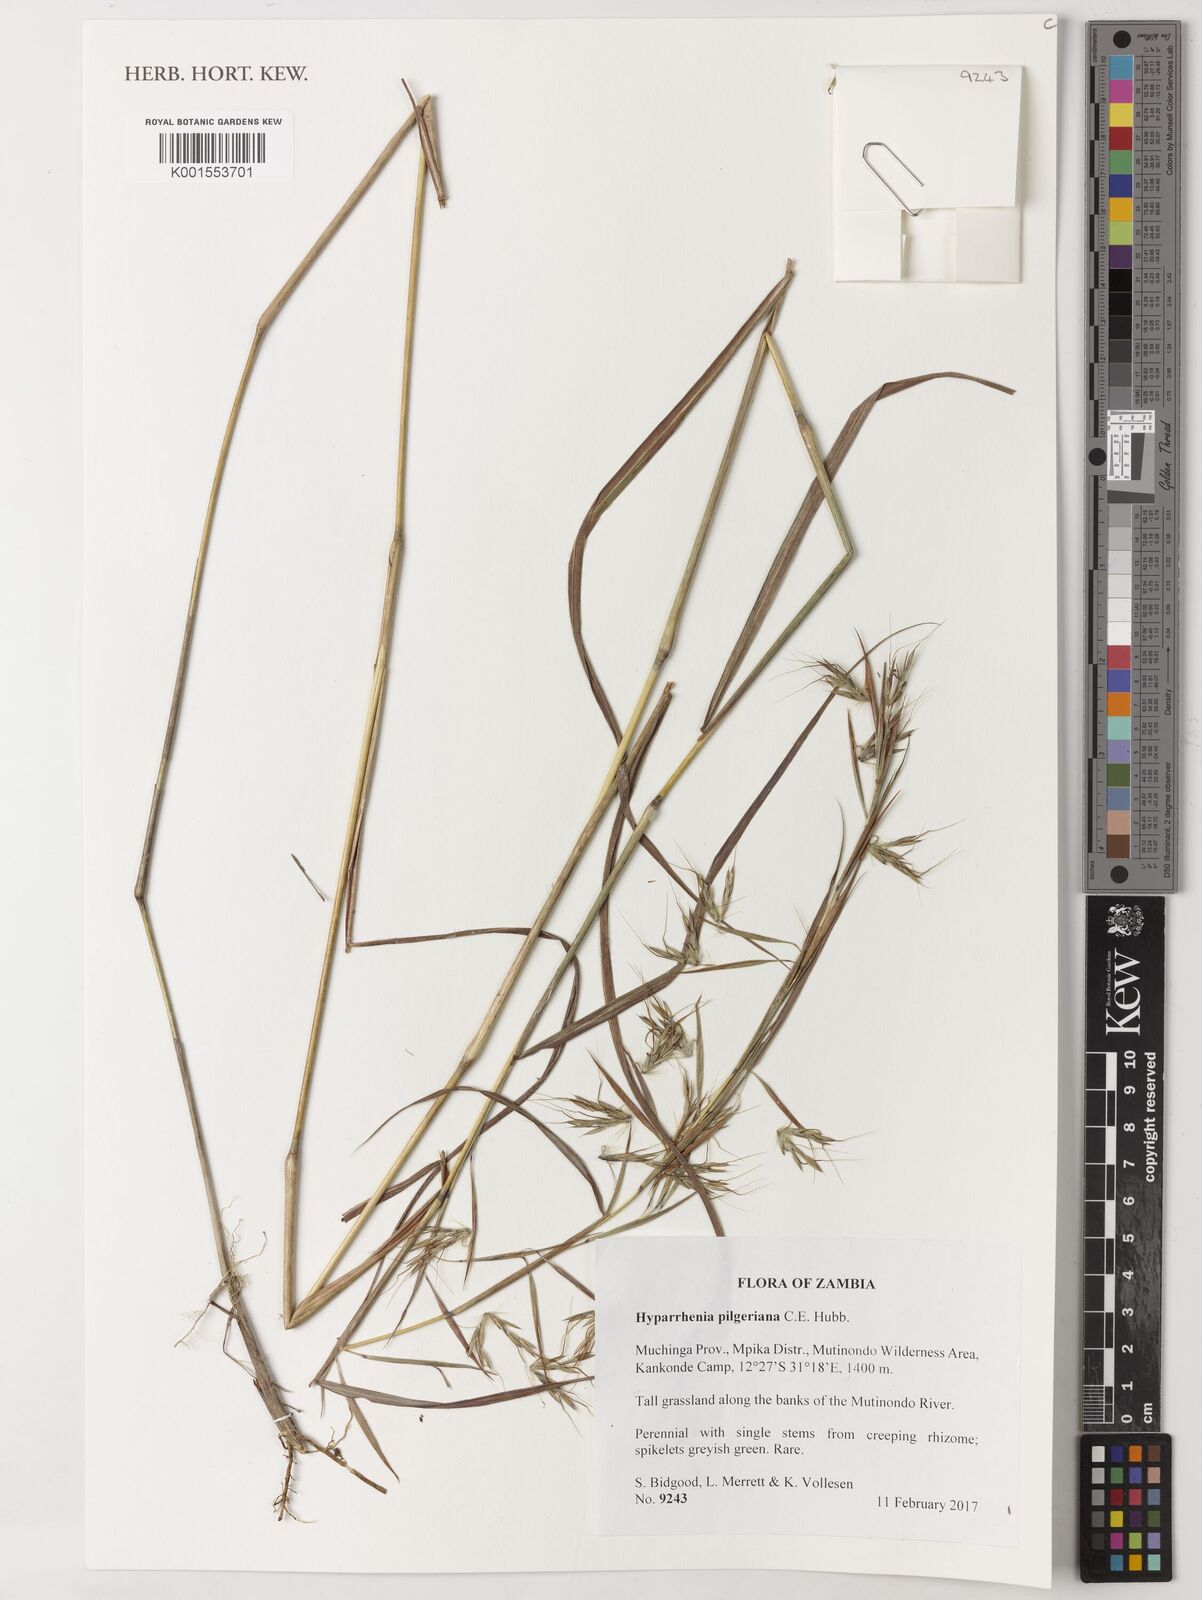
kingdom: Plantae
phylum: Tracheophyta
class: Liliopsida
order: Poales
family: Poaceae
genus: Hyparrhenia
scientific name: Hyparrhenia pilgeriana
